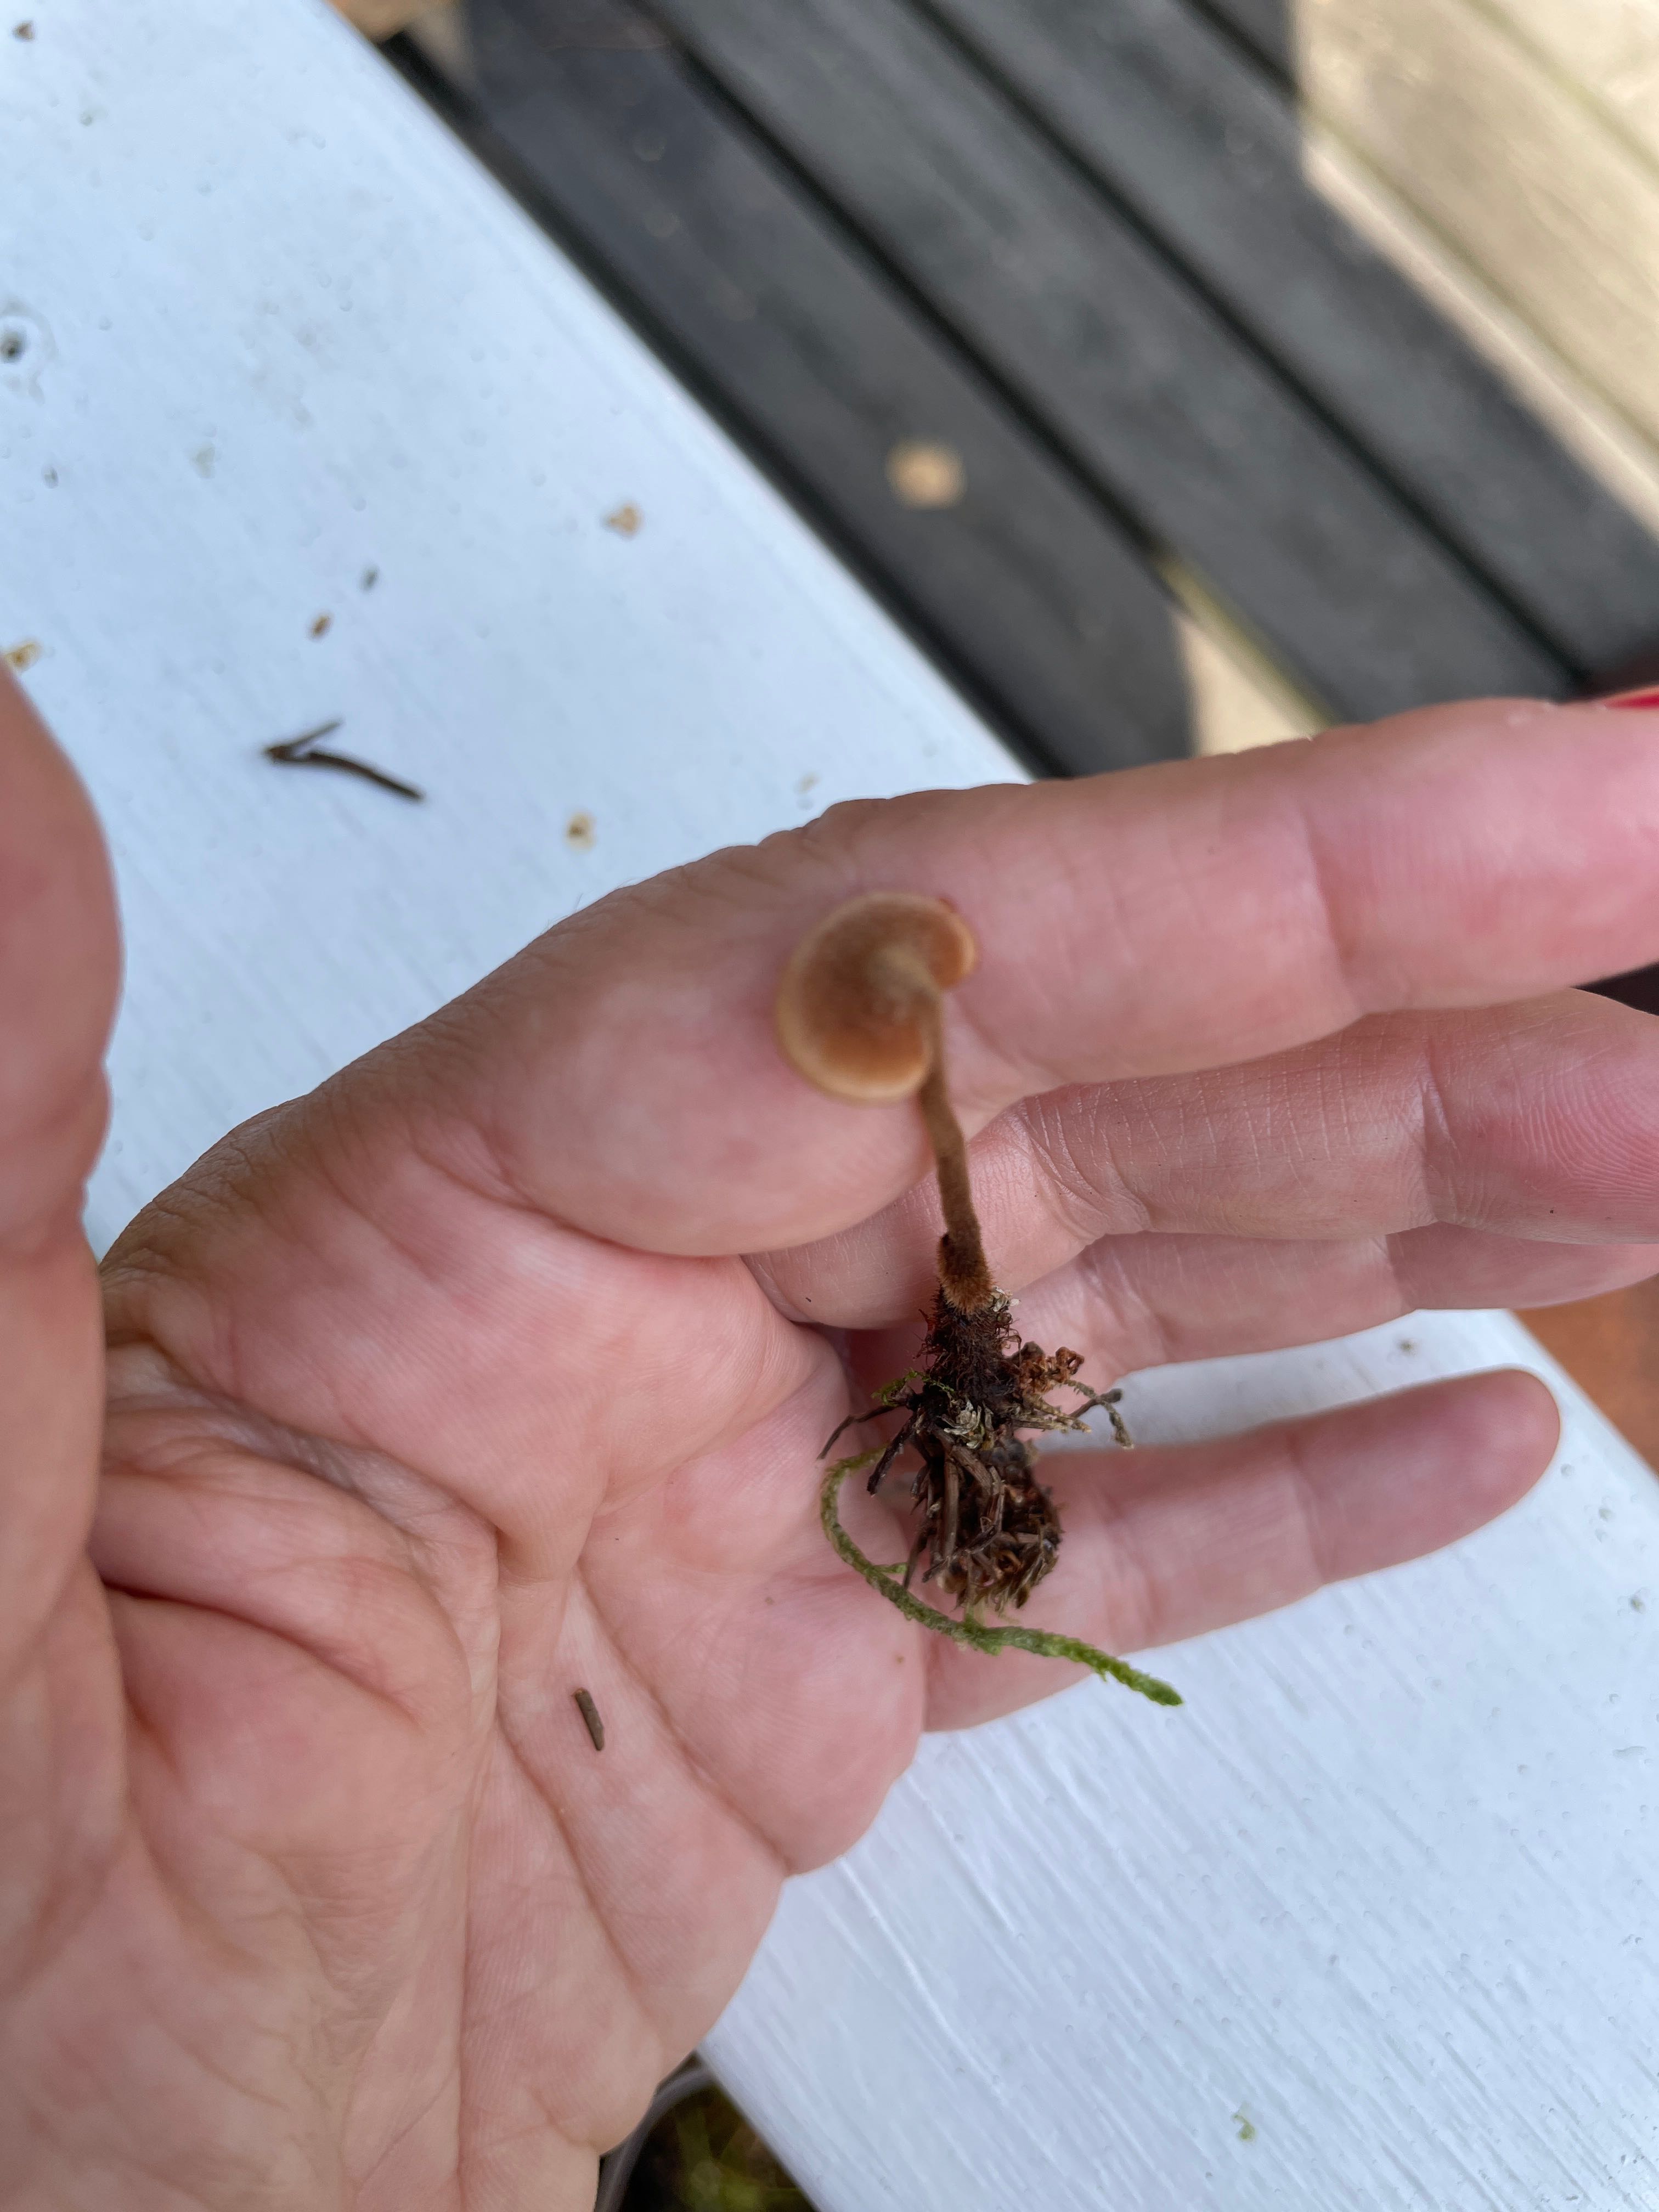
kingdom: Fungi
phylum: Basidiomycota
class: Agaricomycetes
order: Russulales
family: Auriscalpiaceae
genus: Auriscalpium
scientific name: Auriscalpium vulgare
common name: koglepigsvamp
